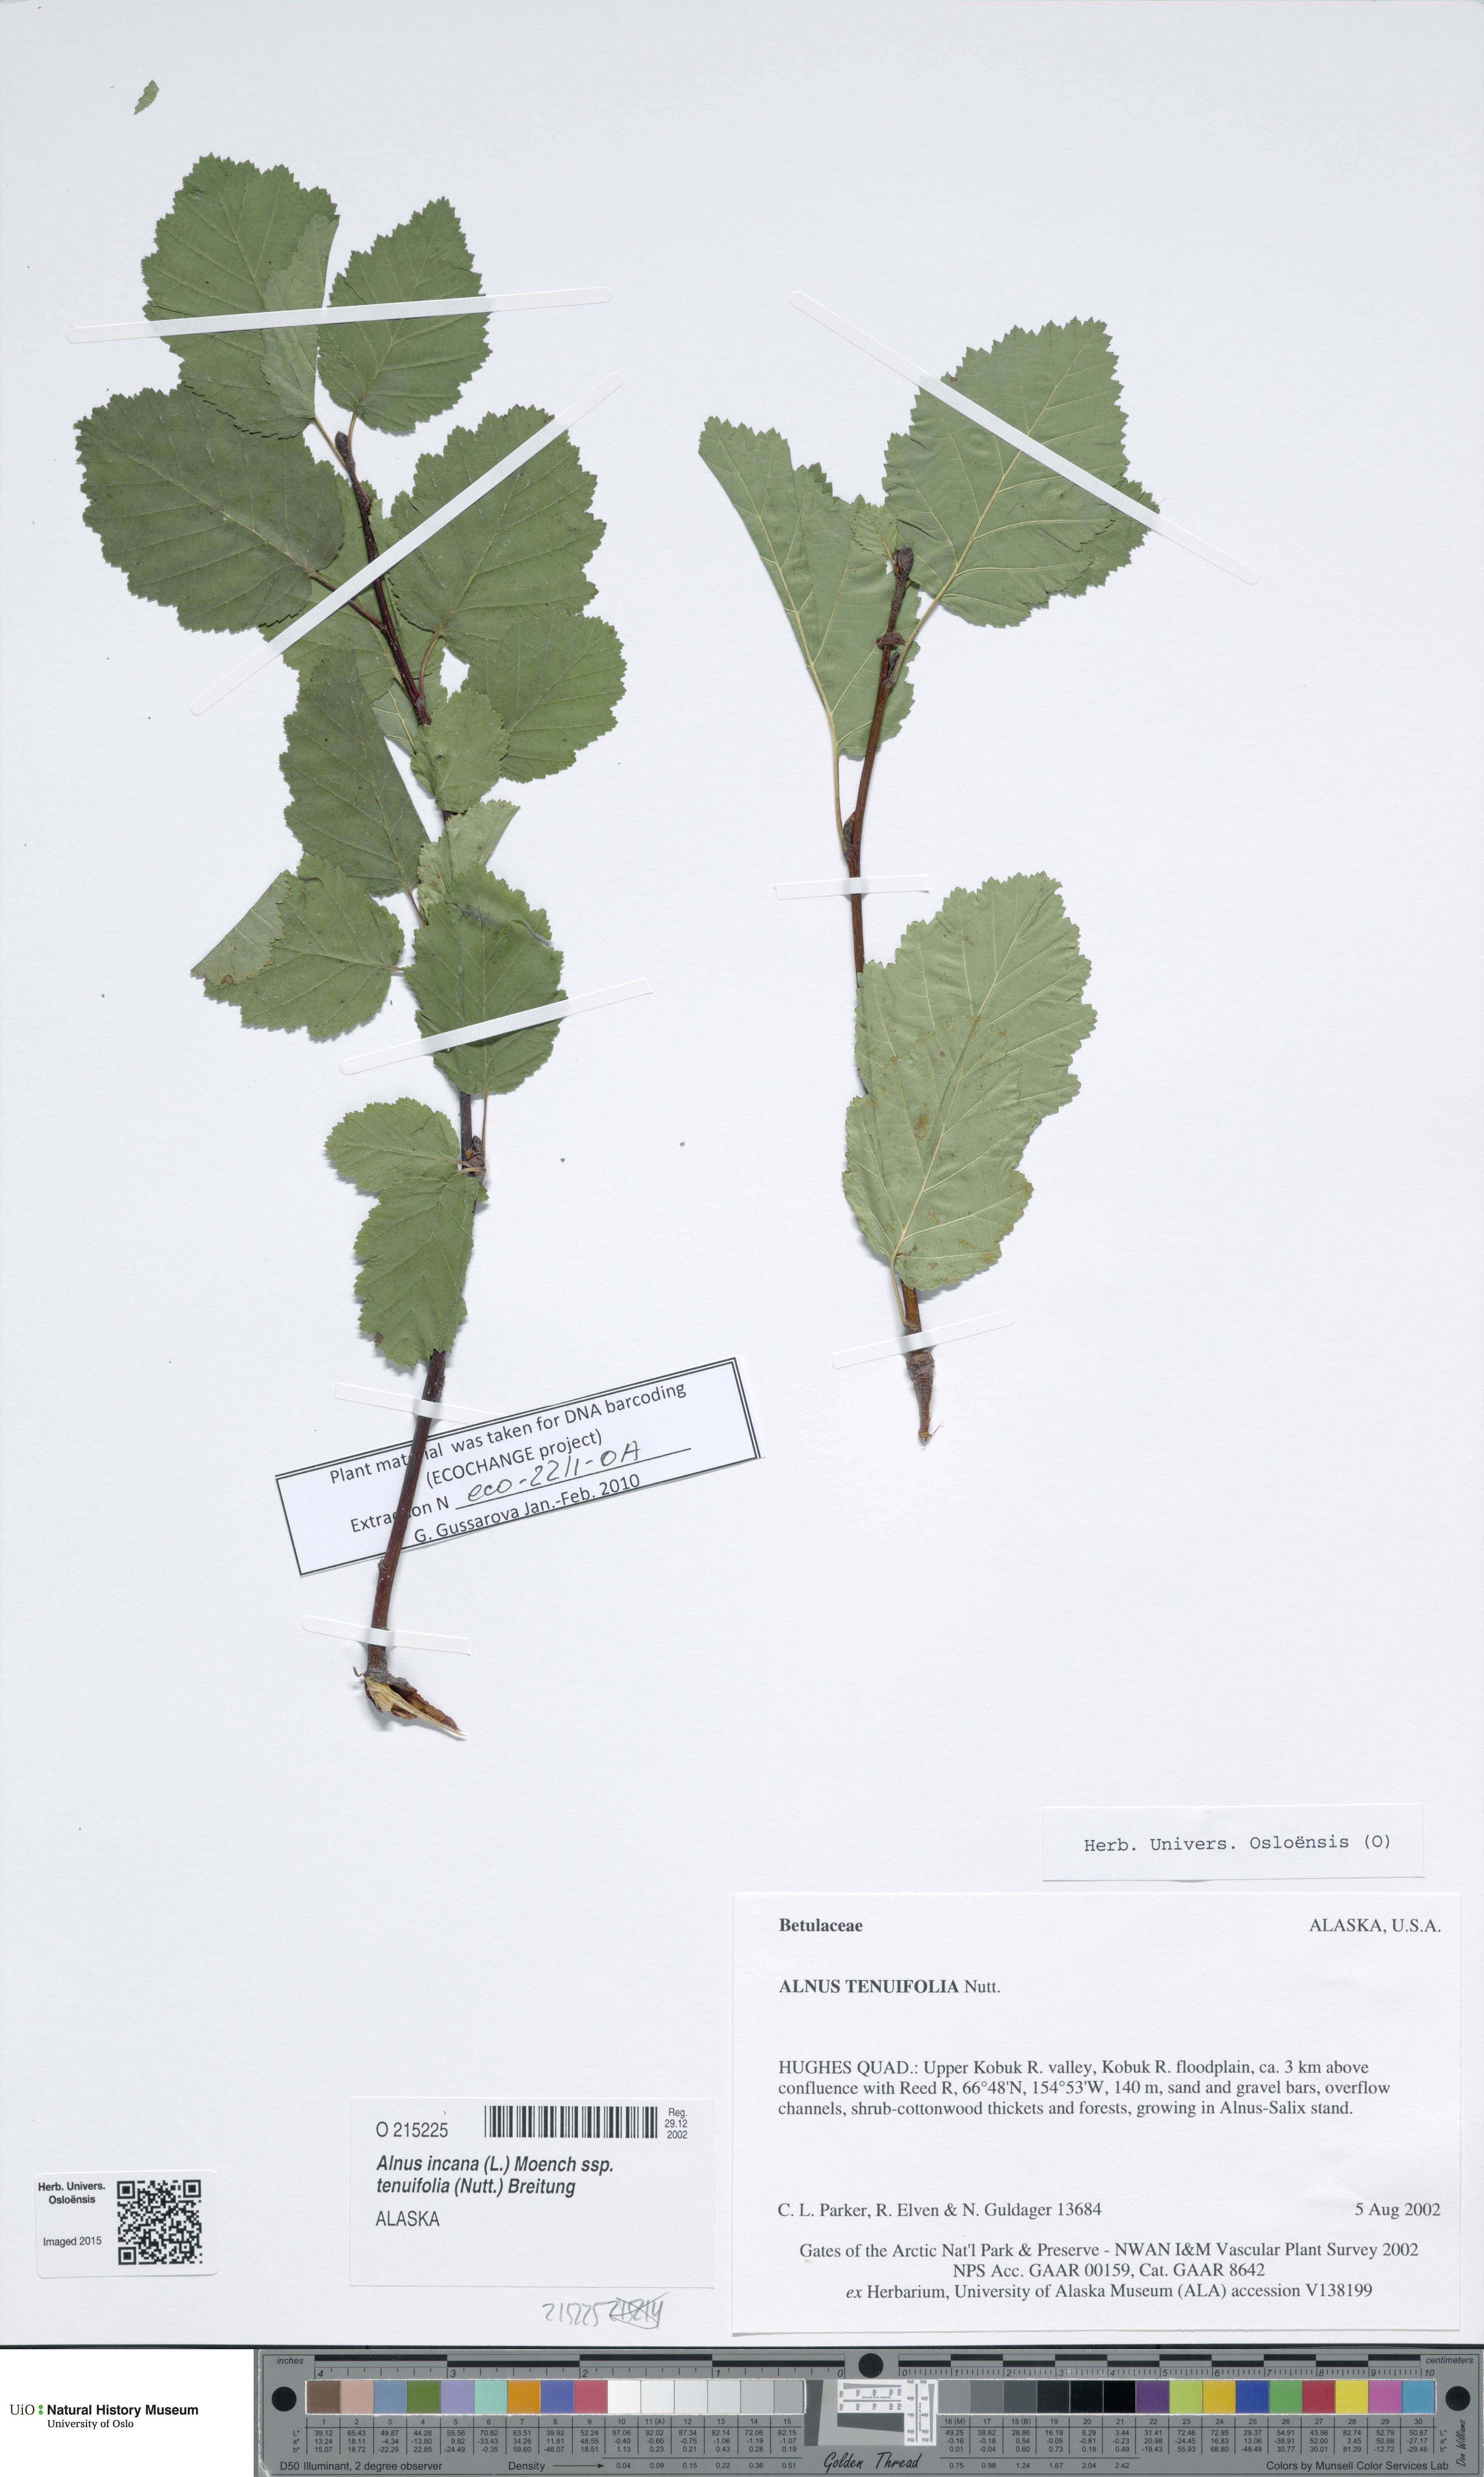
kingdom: Plantae
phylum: Tracheophyta
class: Magnoliopsida
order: Fagales
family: Betulaceae
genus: Alnus
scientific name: Alnus incana
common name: Grey alder
